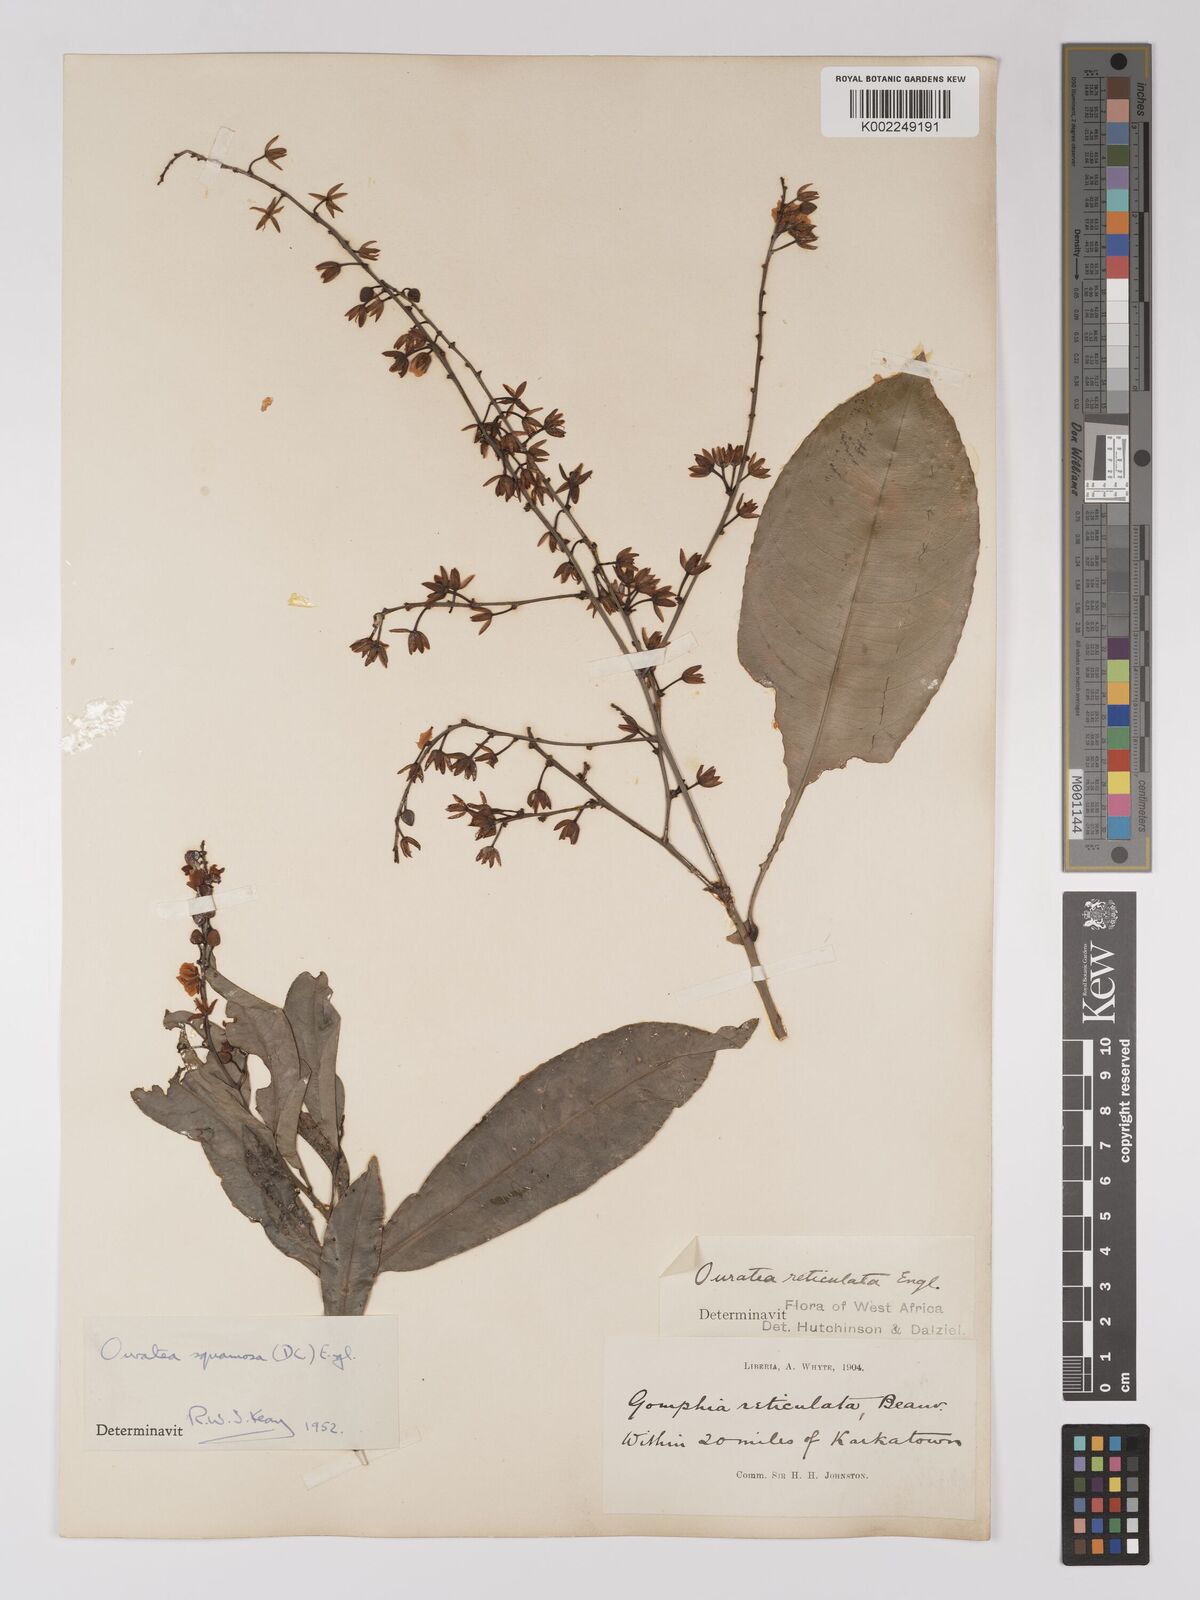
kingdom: Plantae
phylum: Tracheophyta
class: Magnoliopsida
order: Malpighiales
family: Ochnaceae
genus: Campylospermum
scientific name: Campylospermum squamosum
